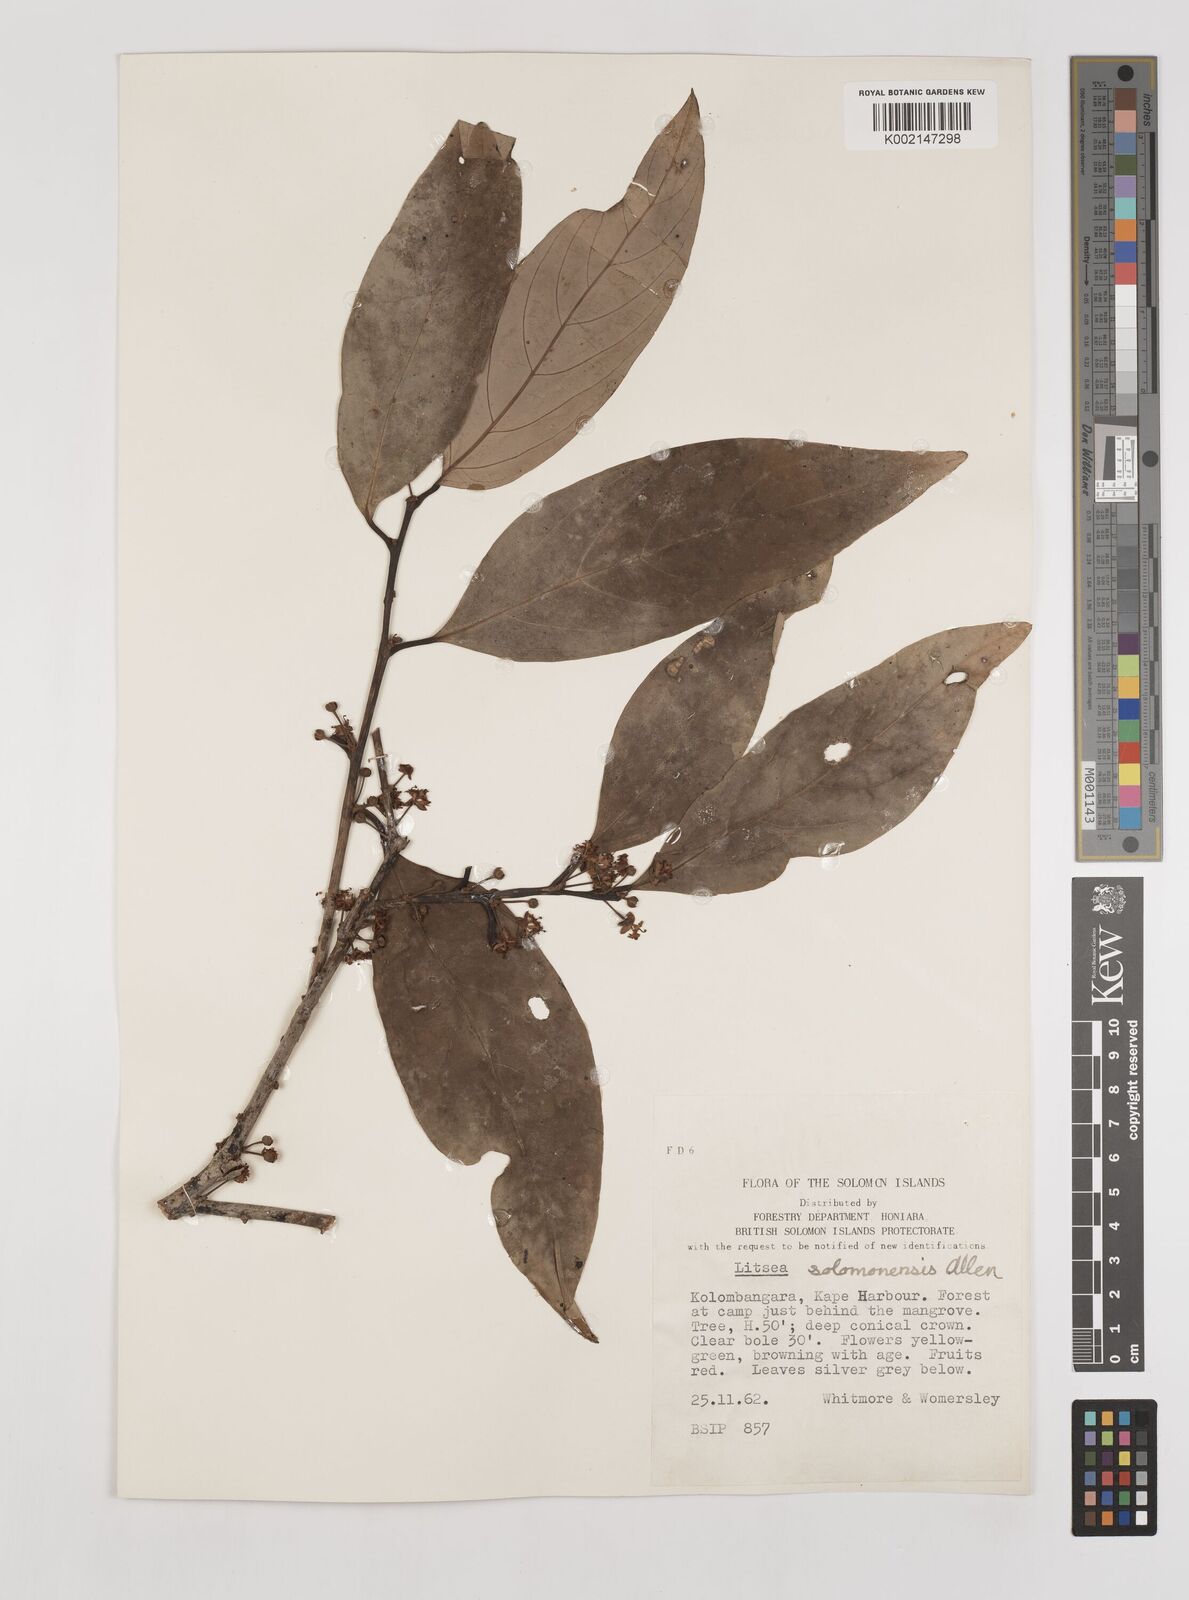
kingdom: Plantae
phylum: Tracheophyta
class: Magnoliopsida
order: Laurales
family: Lauraceae
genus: Litsea
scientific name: Litsea timoriana
